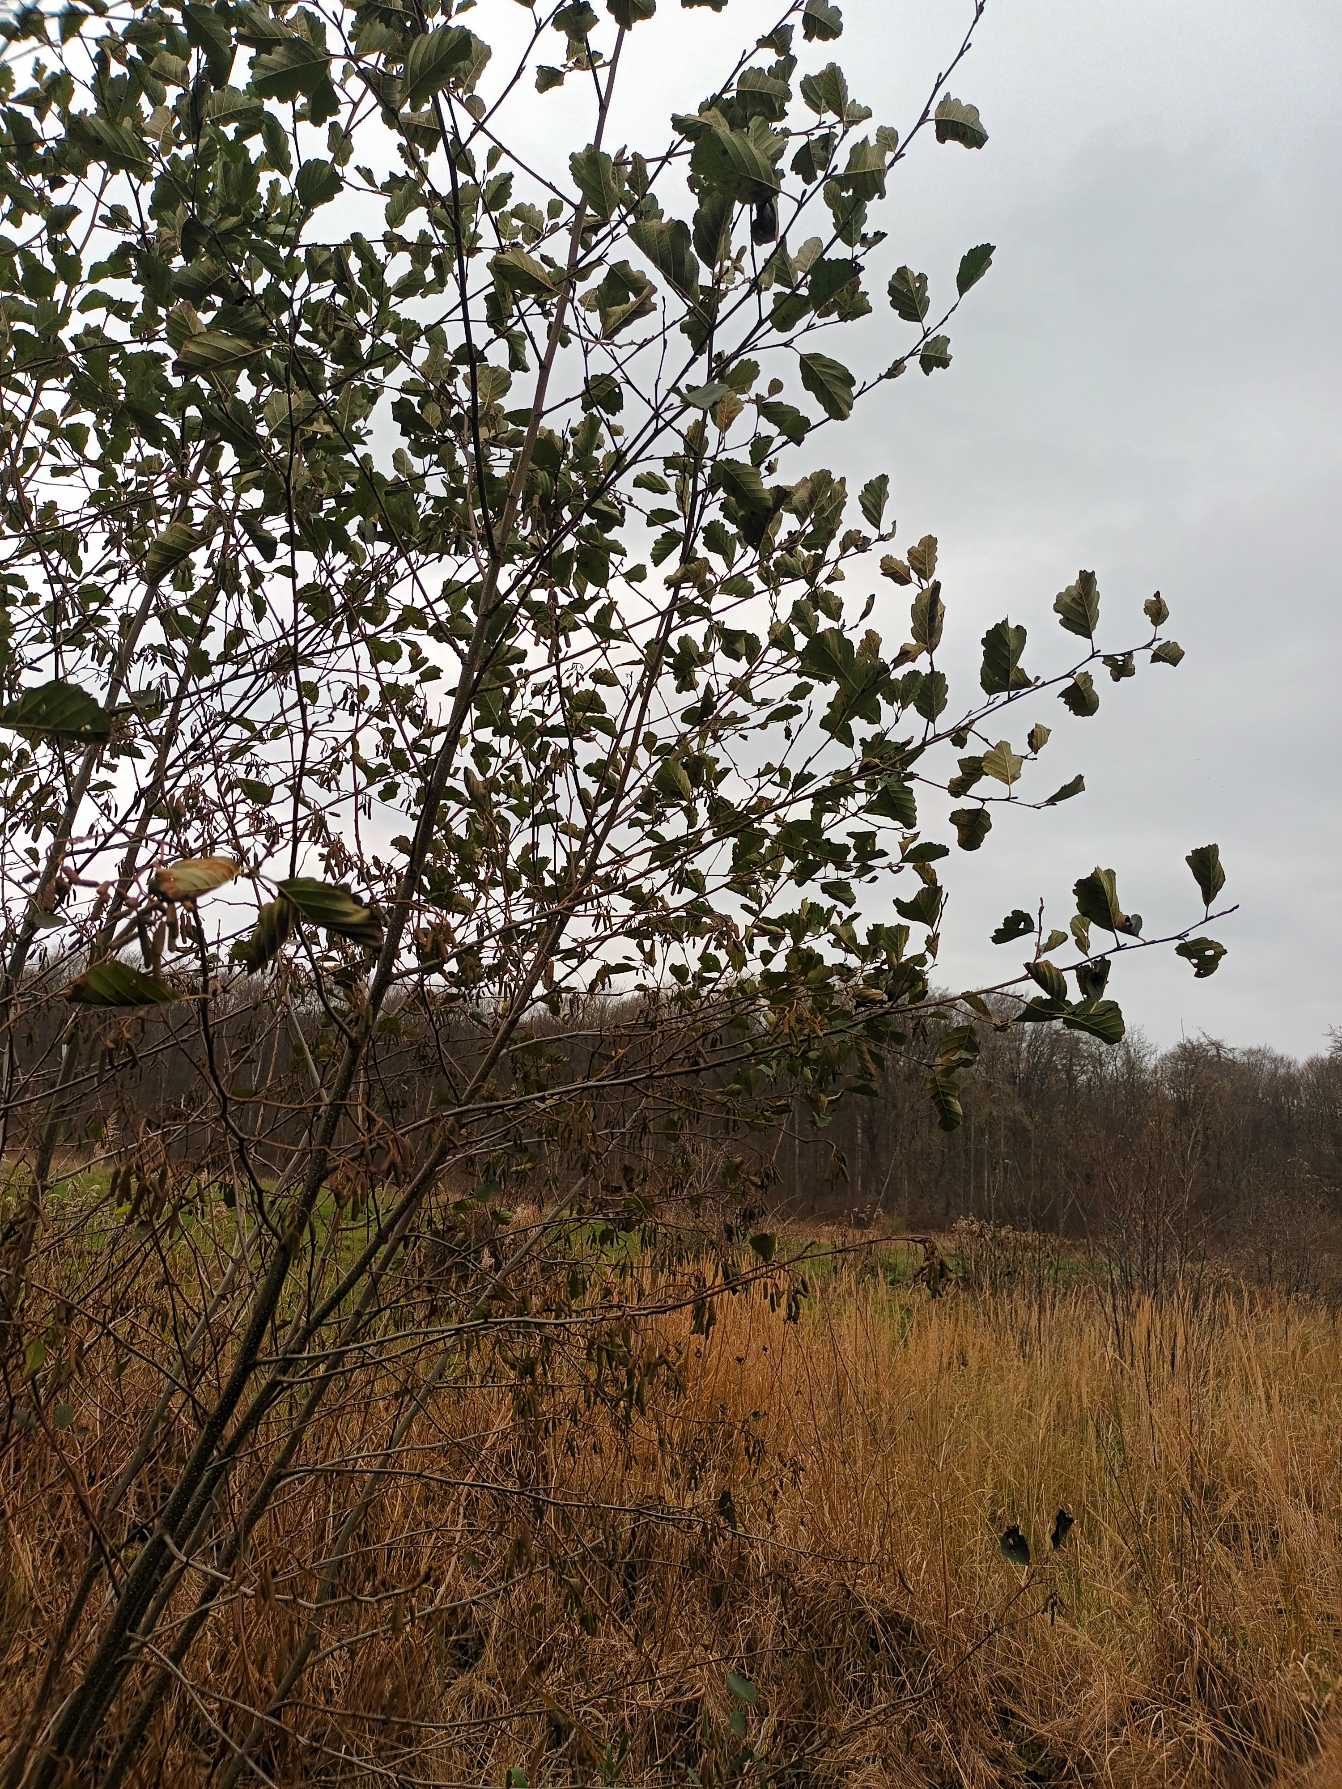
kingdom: Plantae
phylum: Tracheophyta
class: Magnoliopsida
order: Fagales
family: Betulaceae
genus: Alnus
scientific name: Alnus glutinosa
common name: Rød-el
